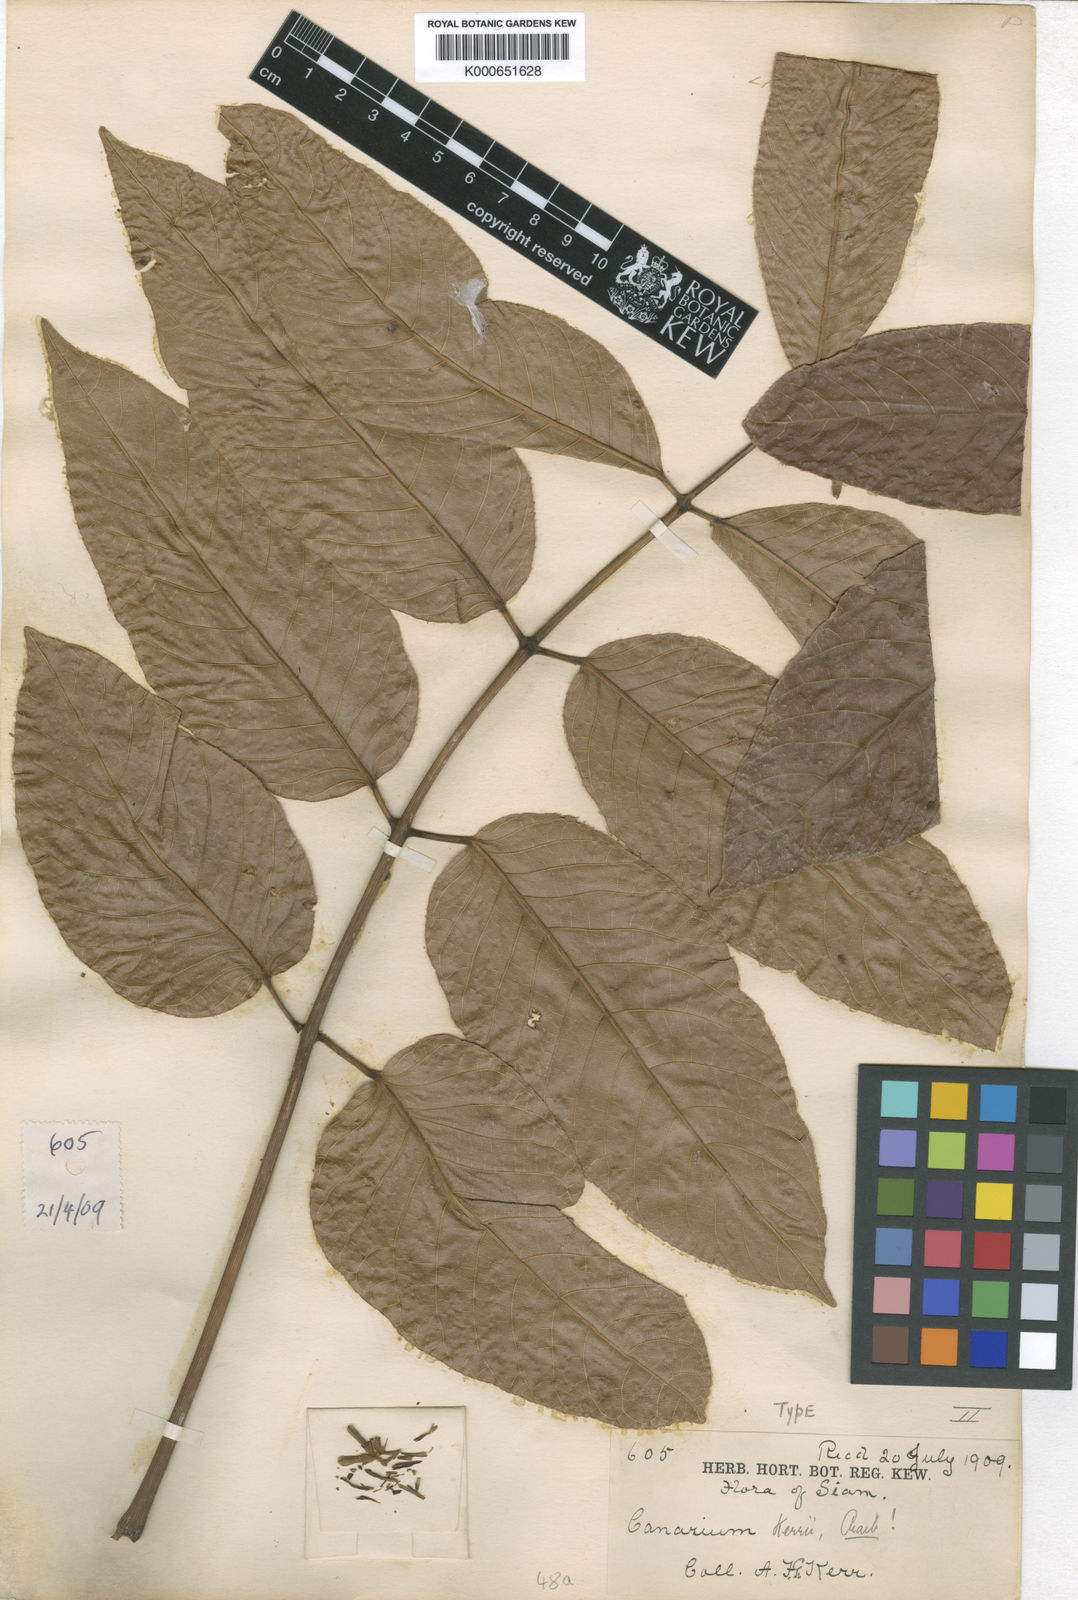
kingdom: Plantae
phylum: Tracheophyta
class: Magnoliopsida
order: Sapindales
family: Burseraceae
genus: Canarium
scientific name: Canarium subulatum
